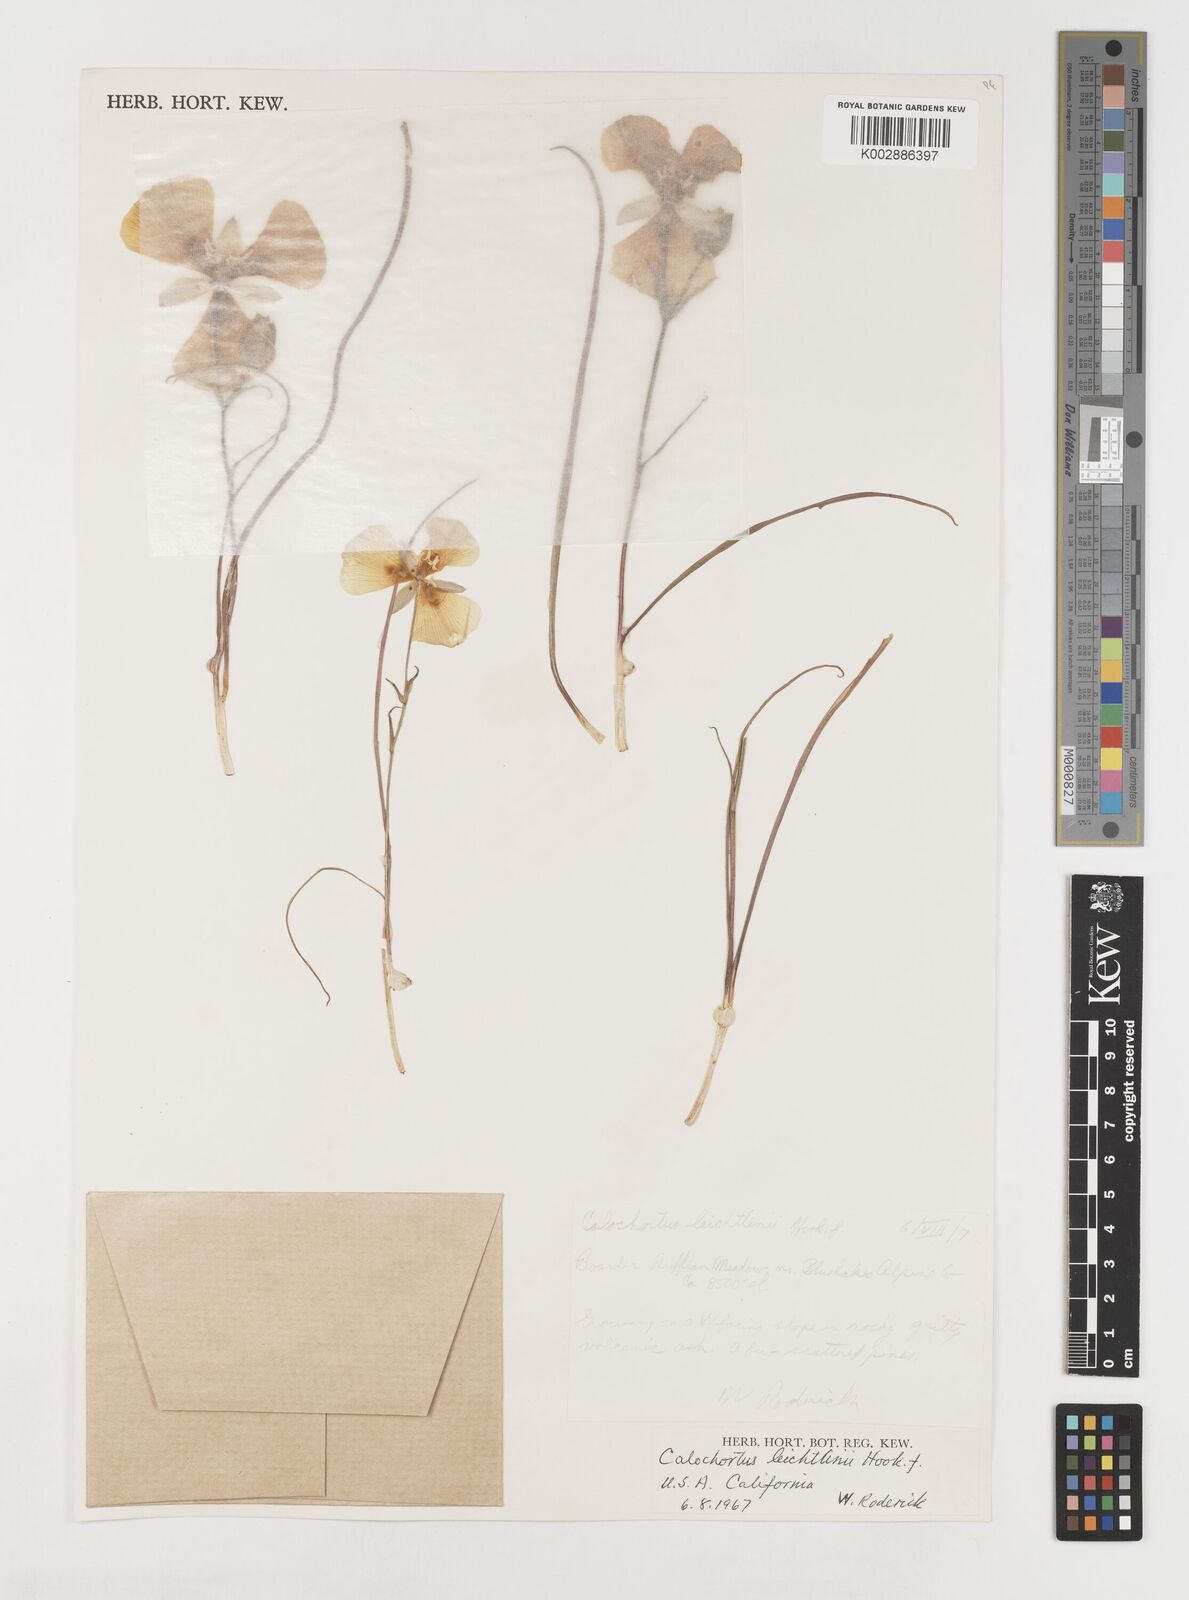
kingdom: Plantae
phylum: Tracheophyta
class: Liliopsida
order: Liliales
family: Liliaceae
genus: Calochortus
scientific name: Calochortus leichtlinii
